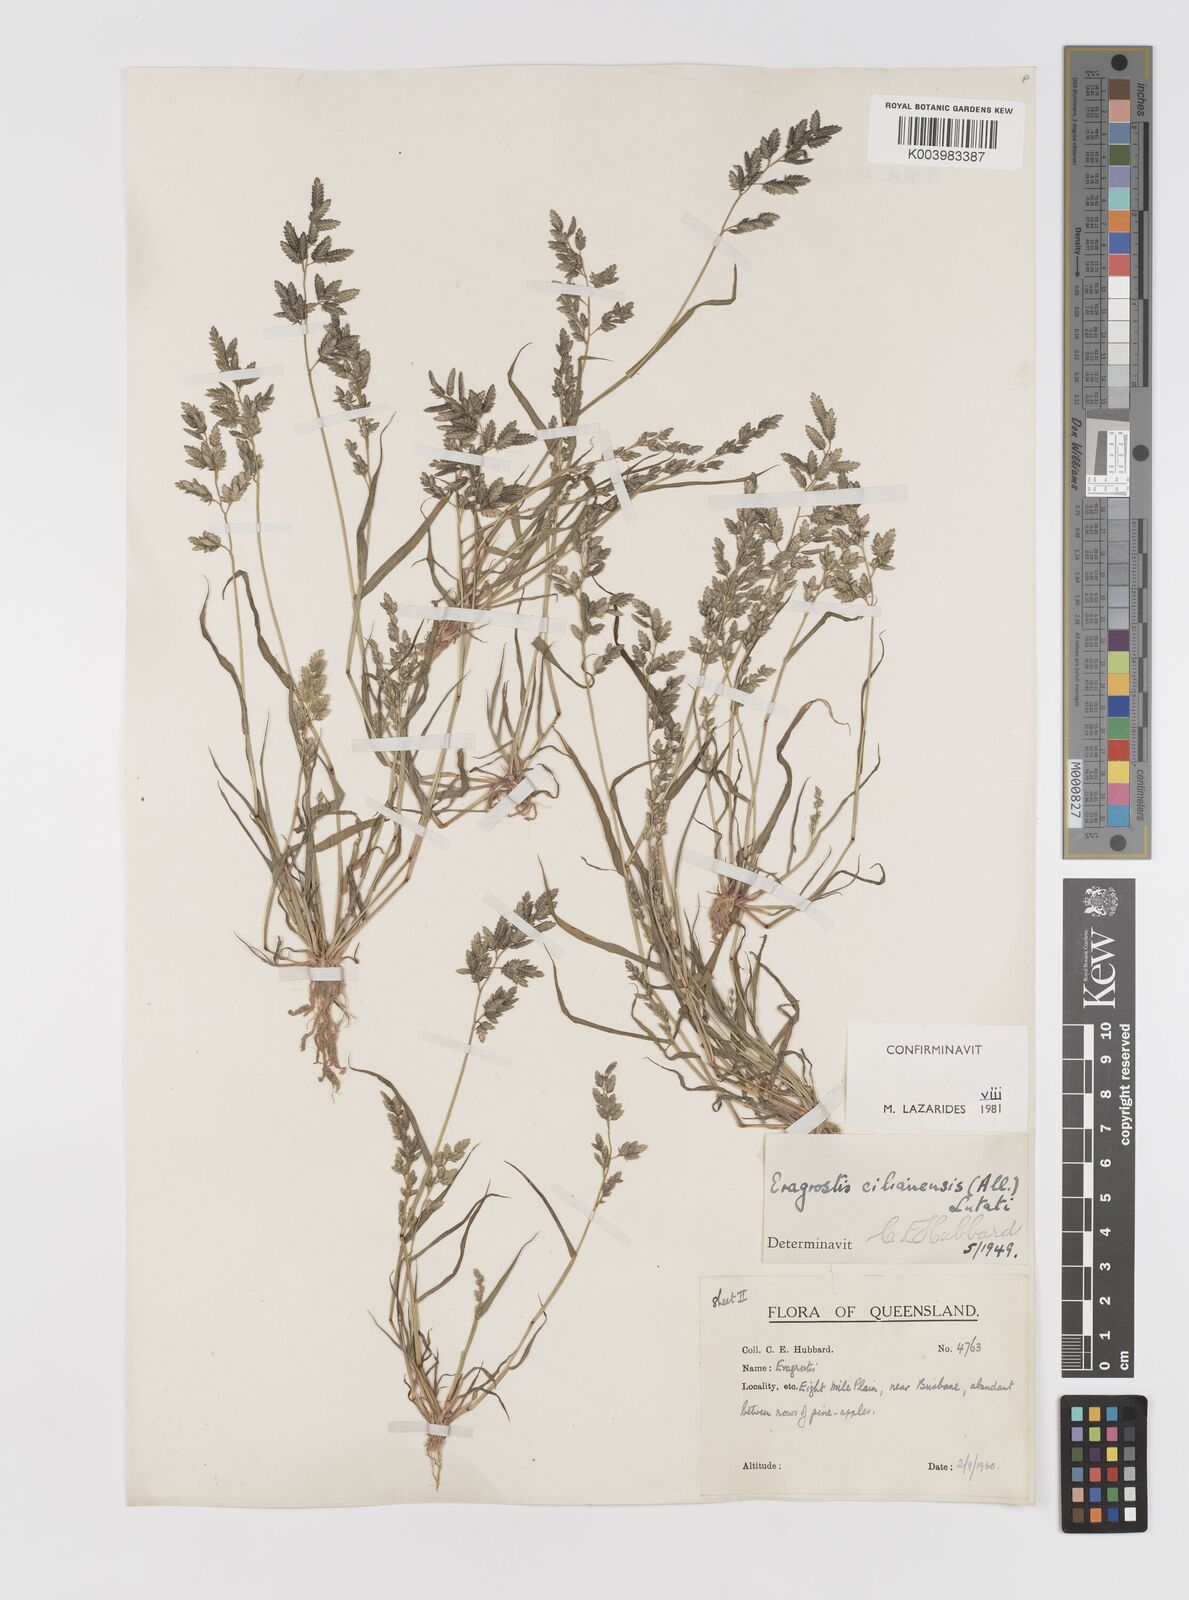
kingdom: Plantae
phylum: Tracheophyta
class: Liliopsida
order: Poales
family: Poaceae
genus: Eragrostis
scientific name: Eragrostis cilianensis
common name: Stinkgrass
